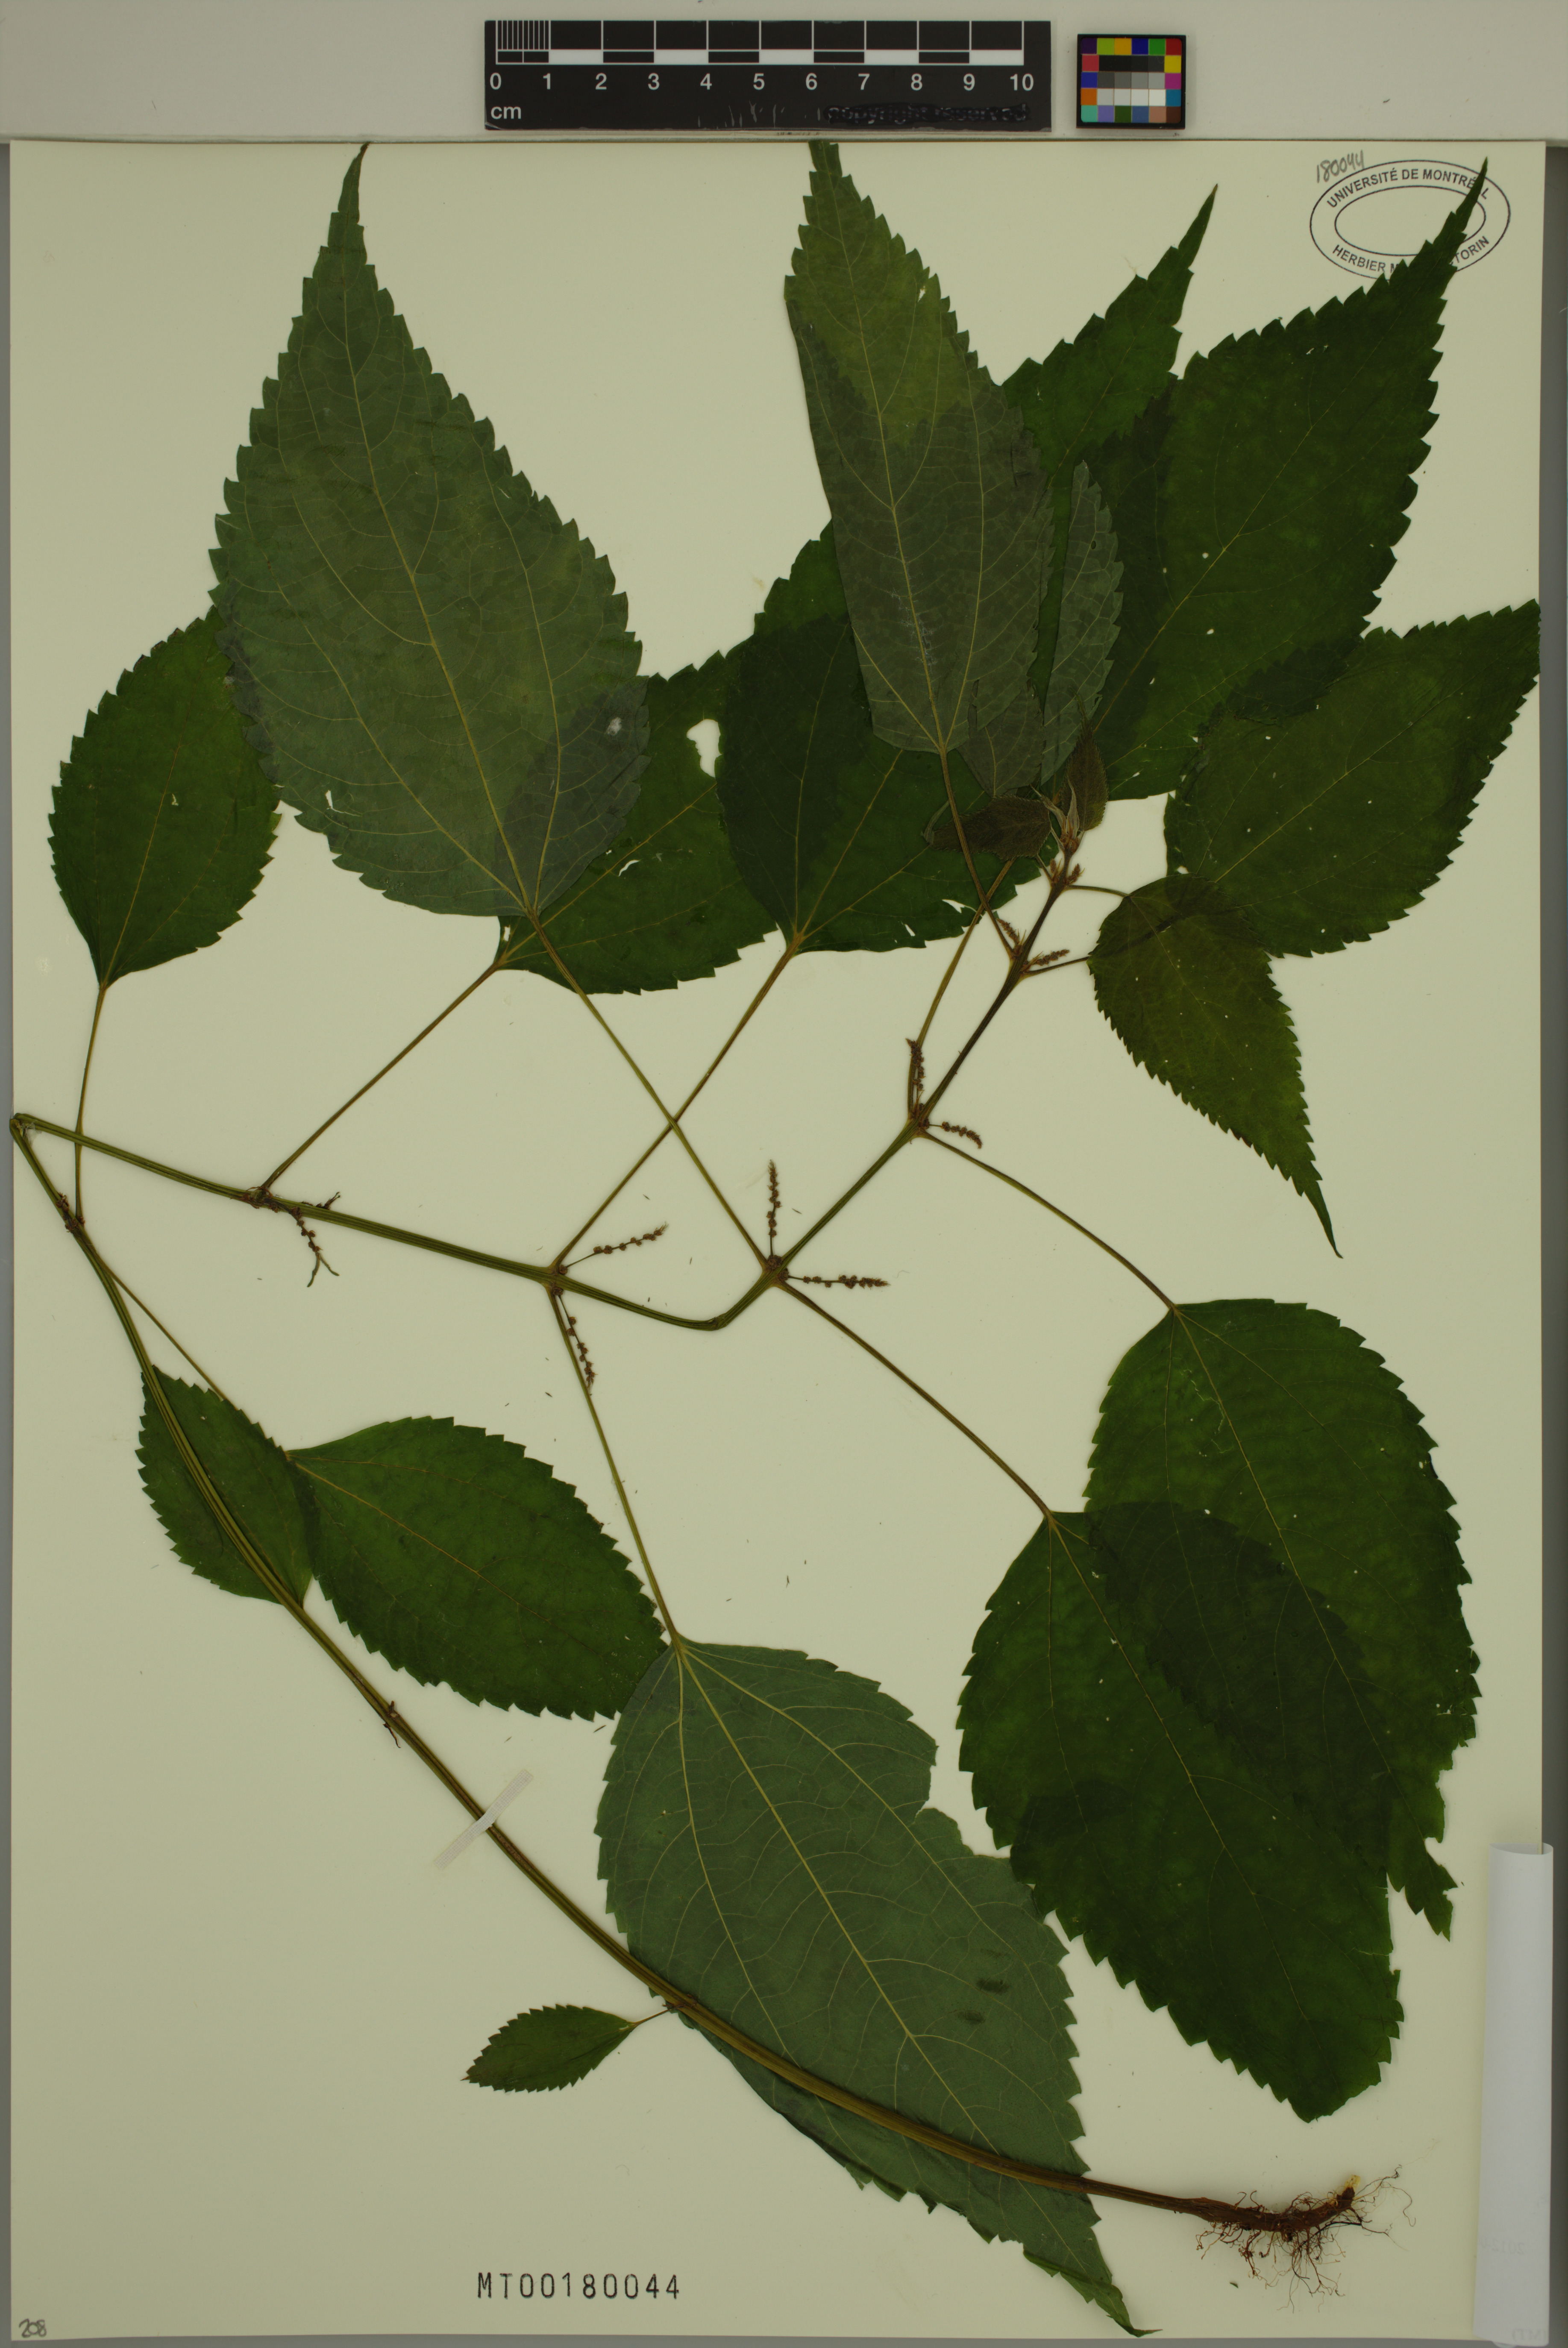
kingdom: Plantae
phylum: Tracheophyta
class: Magnoliopsida
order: Rosales
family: Urticaceae
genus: Boehmeria
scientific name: Boehmeria cylindrica
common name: Bog-hemp
